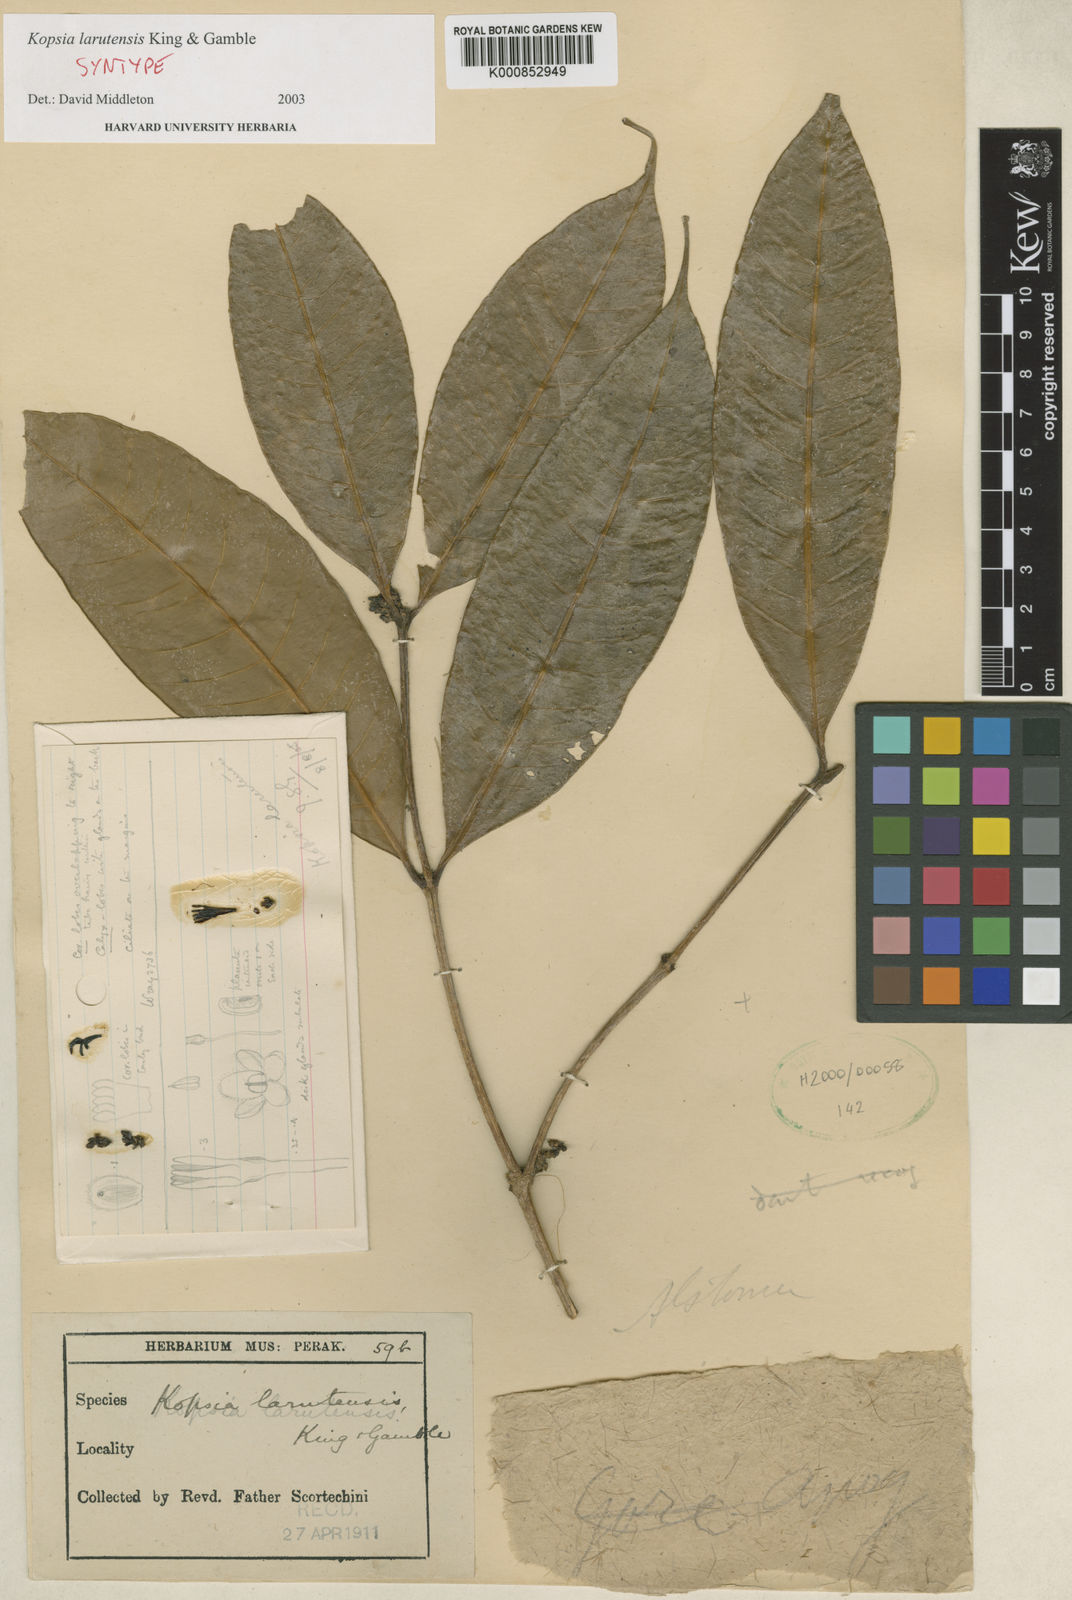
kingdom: Plantae
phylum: Tracheophyta
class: Magnoliopsida
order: Gentianales
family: Apocynaceae
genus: Kopsia
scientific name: Kopsia larutensis
